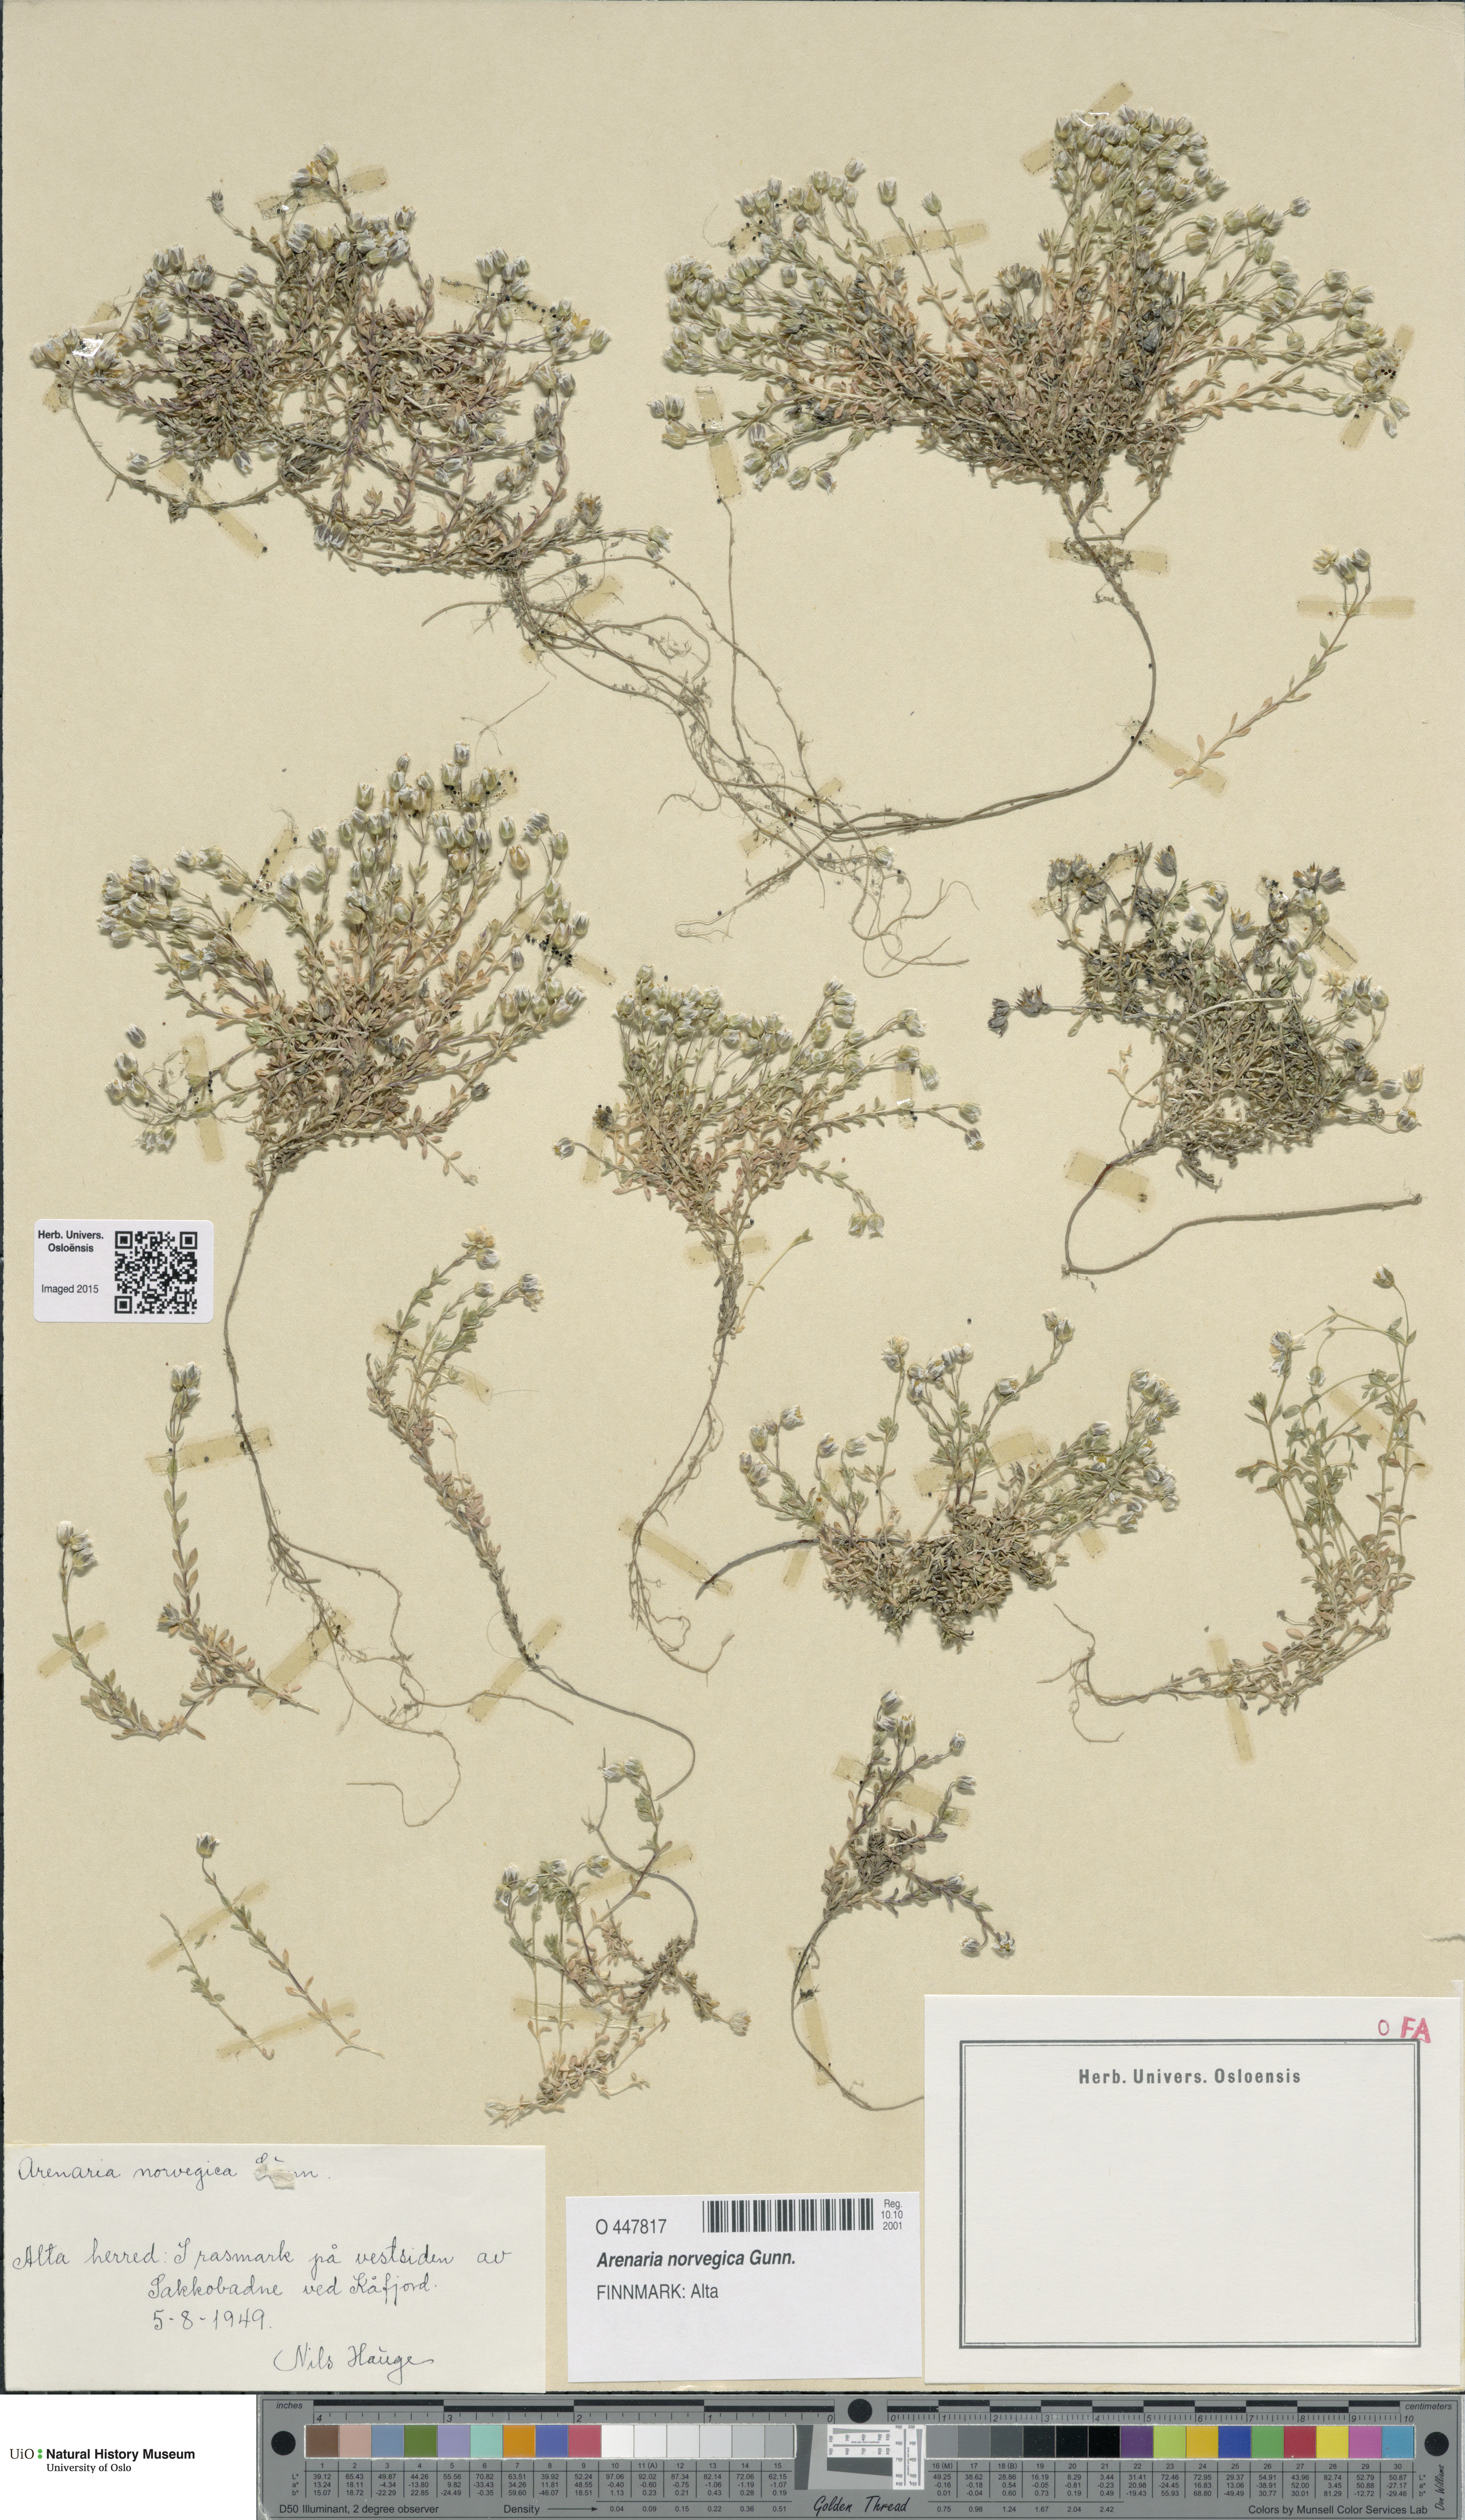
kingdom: Plantae
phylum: Tracheophyta
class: Magnoliopsida
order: Caryophyllales
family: Caryophyllaceae
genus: Arenaria
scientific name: Arenaria norvegica
